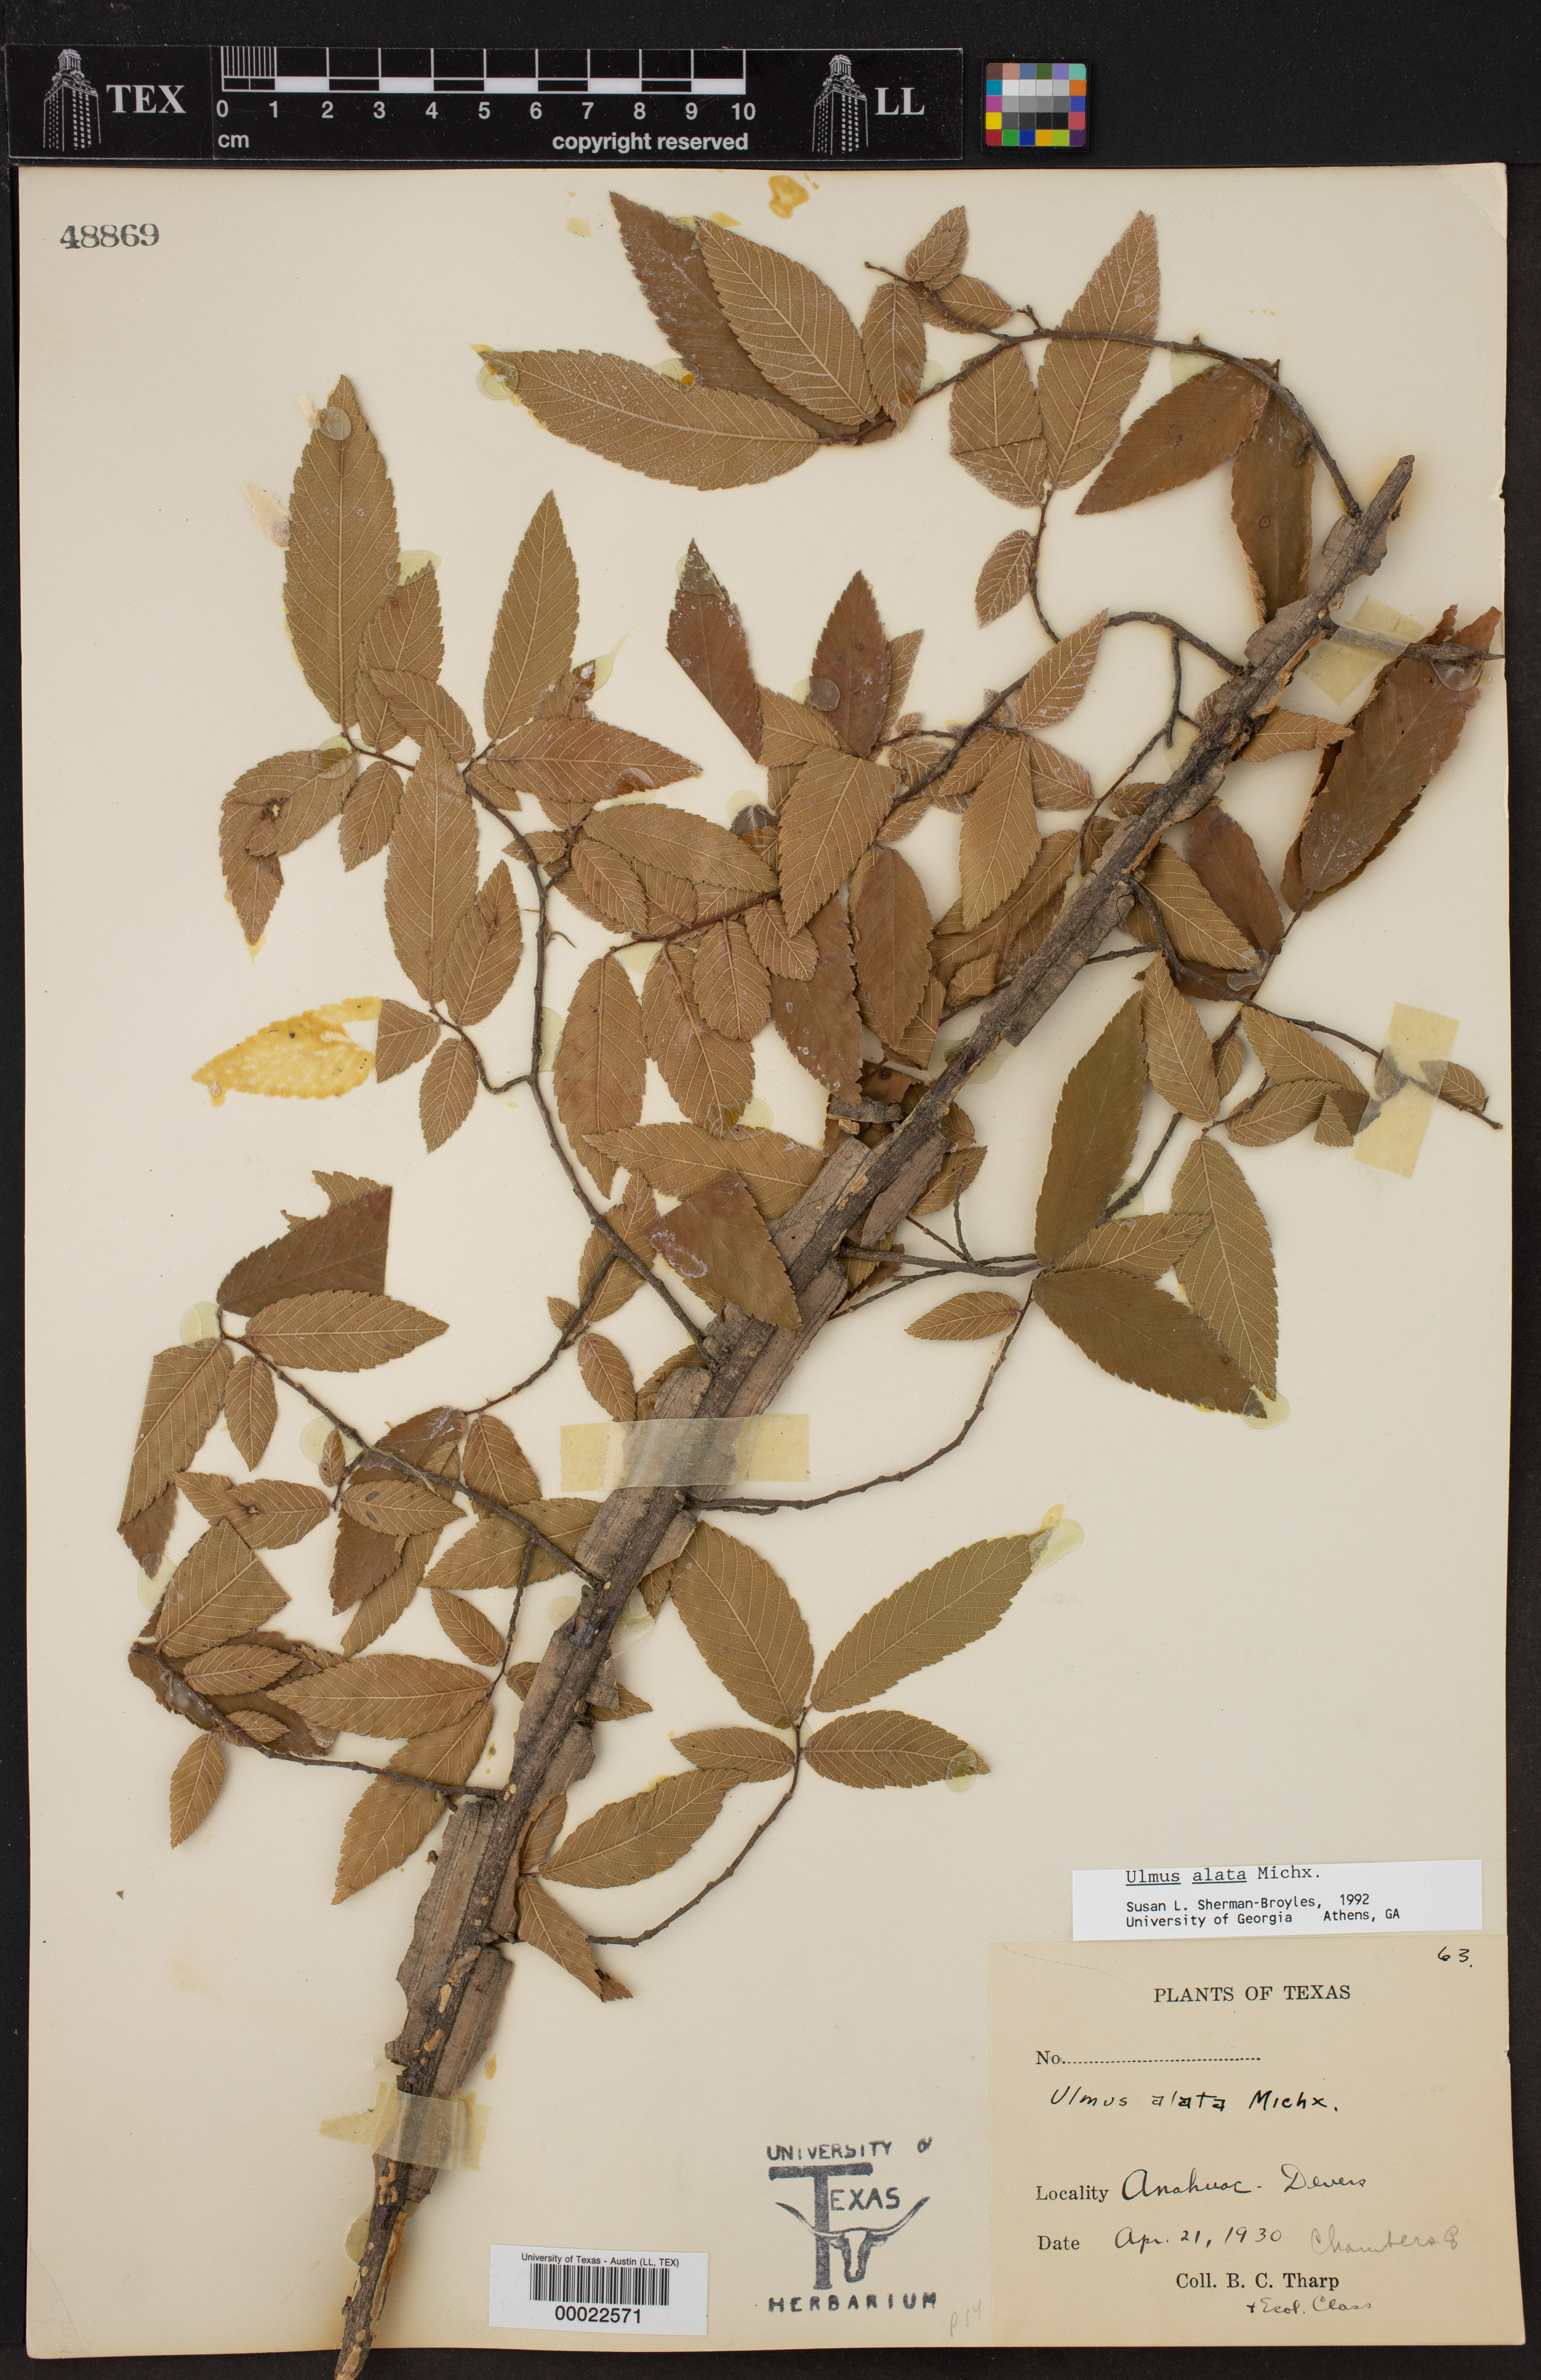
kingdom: Plantae
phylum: Tracheophyta
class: Magnoliopsida
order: Rosales
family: Ulmaceae
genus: Ulmus
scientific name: Ulmus alata
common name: Winged elm
